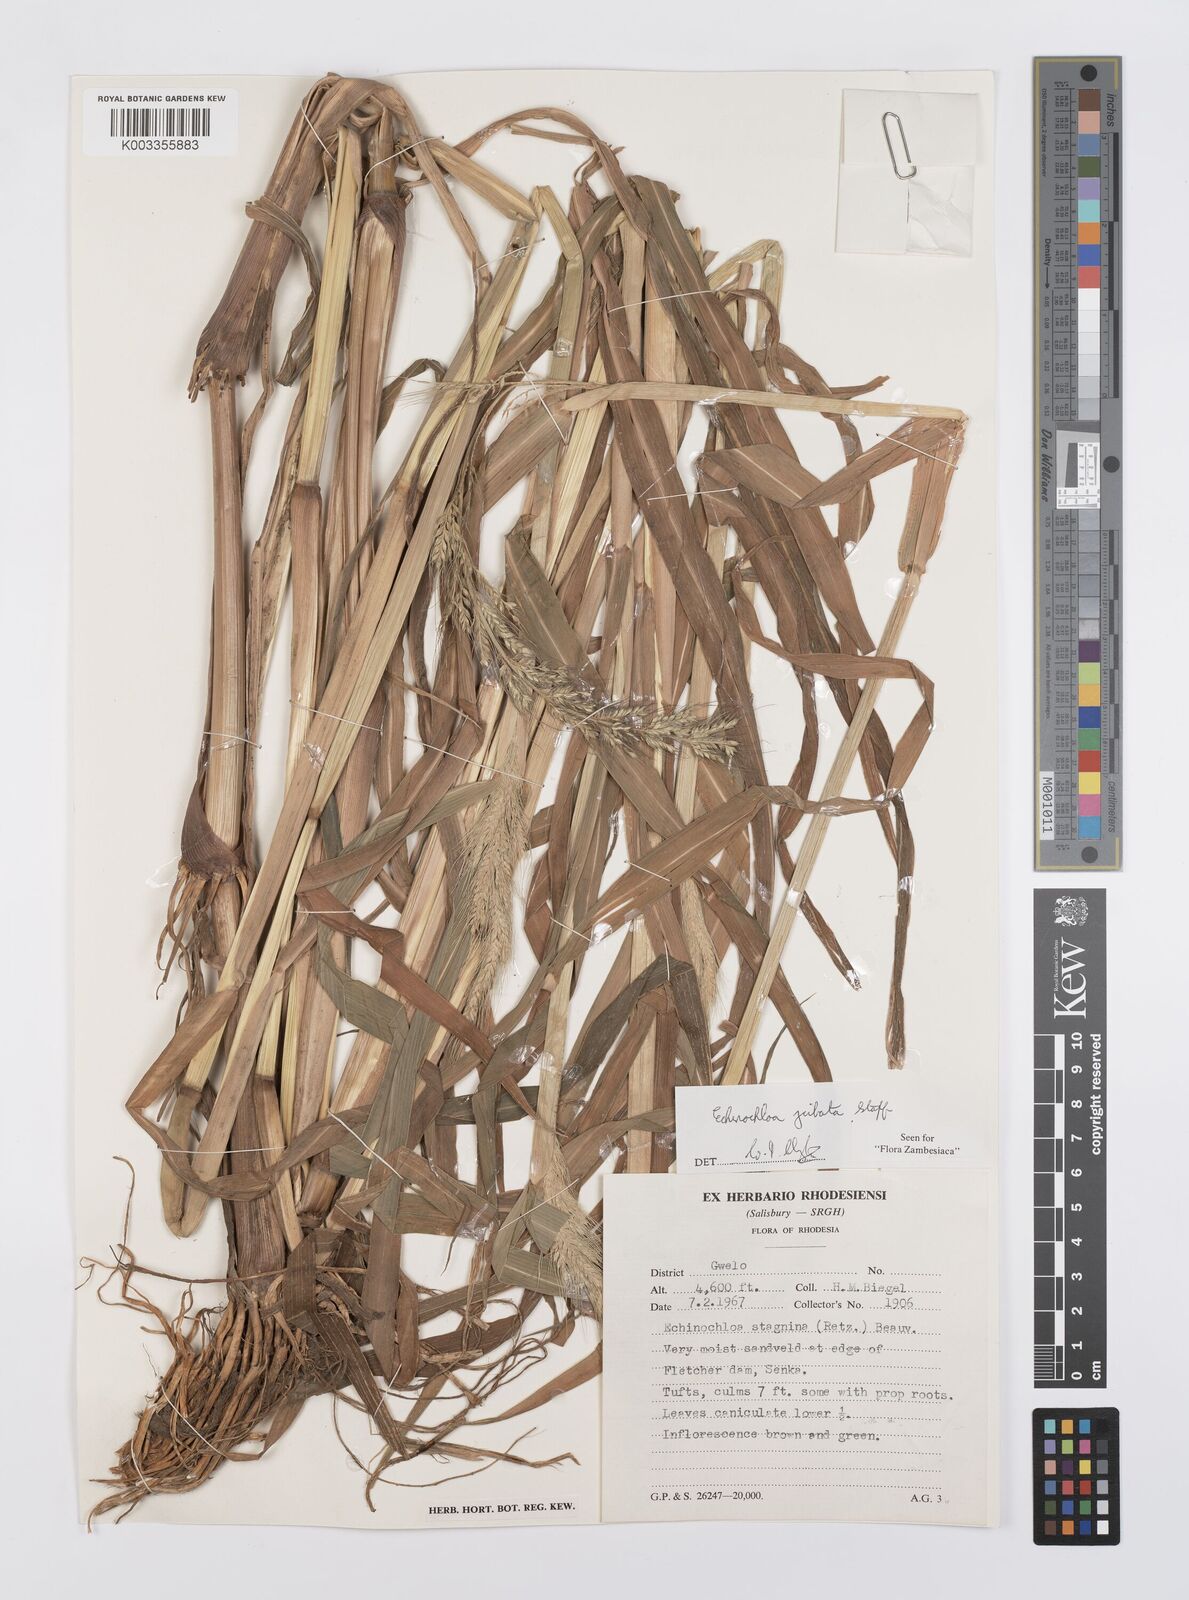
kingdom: Plantae
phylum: Tracheophyta
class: Liliopsida
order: Poales
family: Poaceae
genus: Echinochloa
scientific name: Echinochloa jubata
